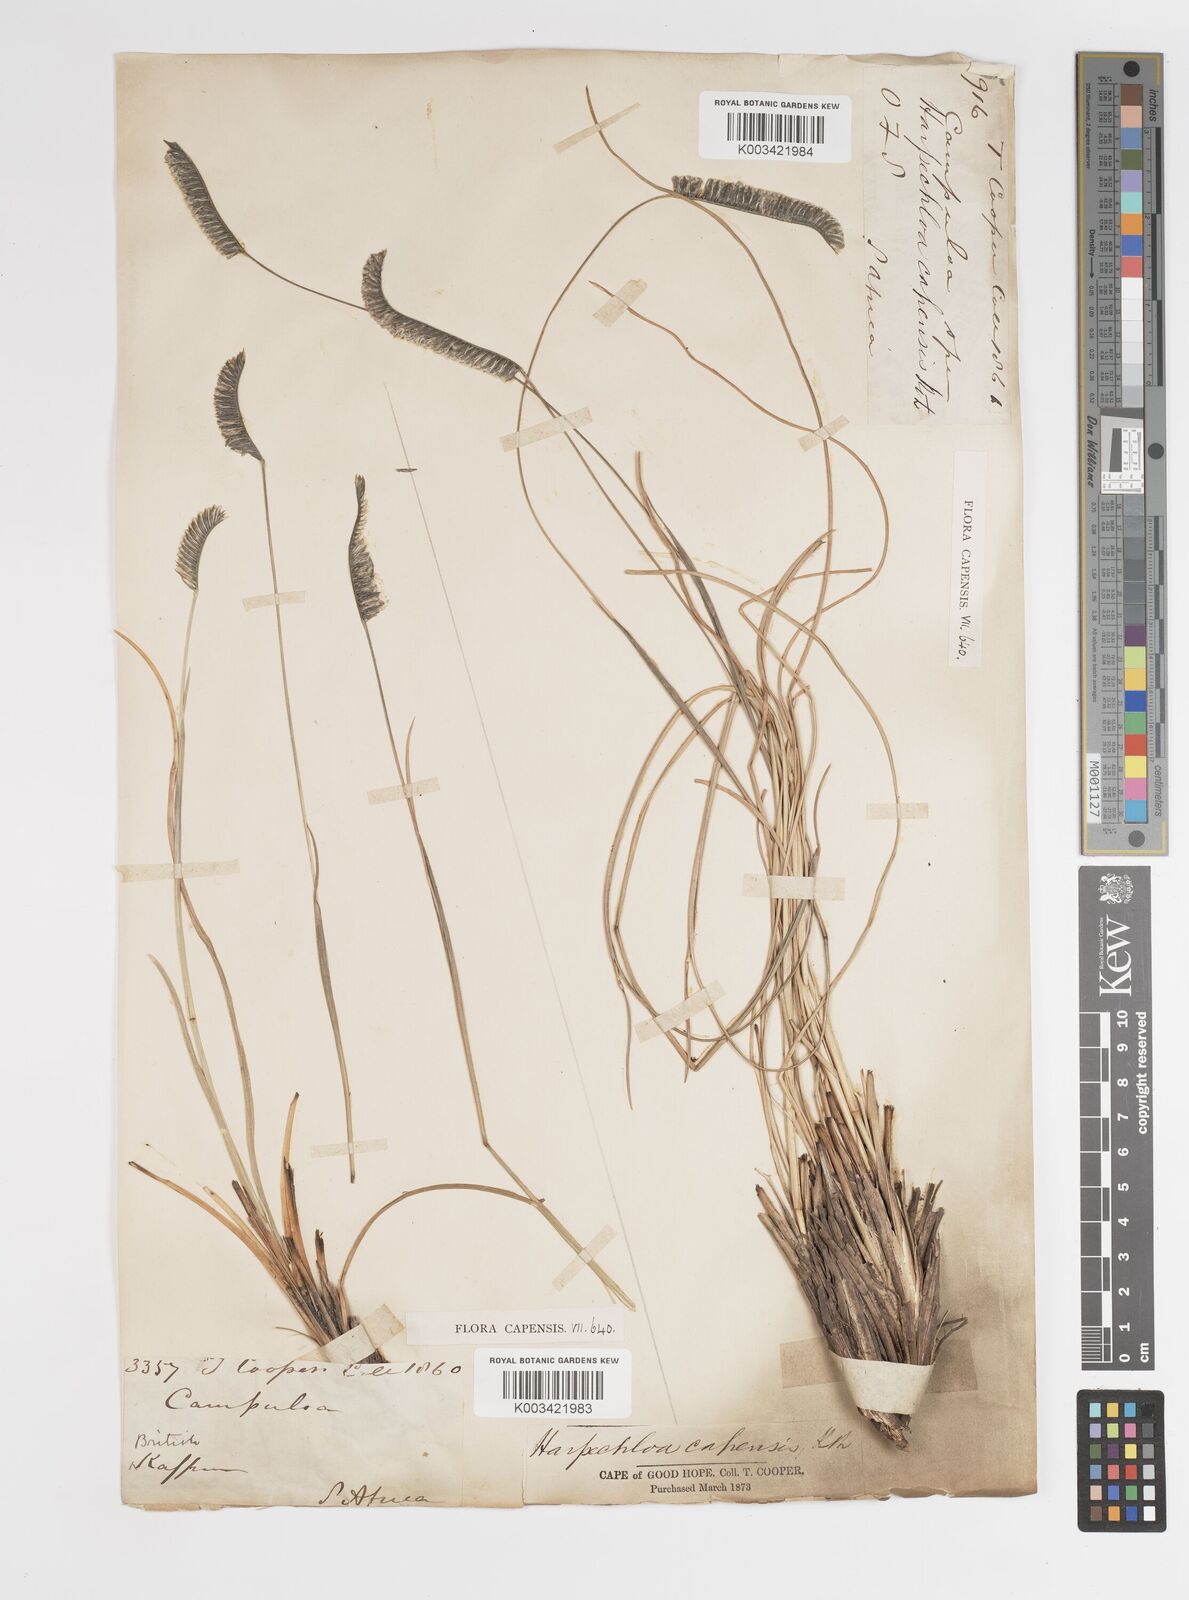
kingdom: Plantae
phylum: Tracheophyta
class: Liliopsida
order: Poales
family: Poaceae
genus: Harpochloa
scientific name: Harpochloa falx
